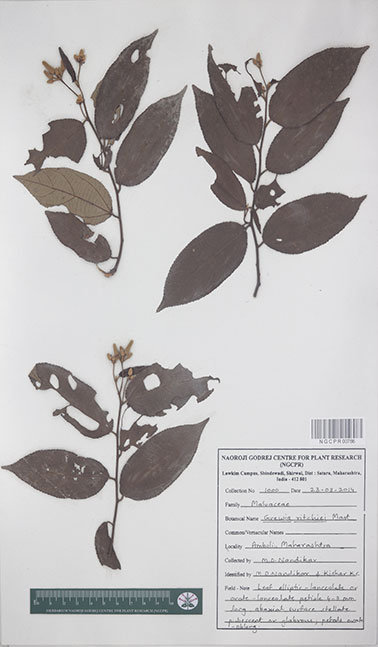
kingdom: Plantae
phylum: Tracheophyta
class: Magnoliopsida
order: Malvales
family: Malvaceae
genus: Grewia
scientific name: Grewia ritchiei
